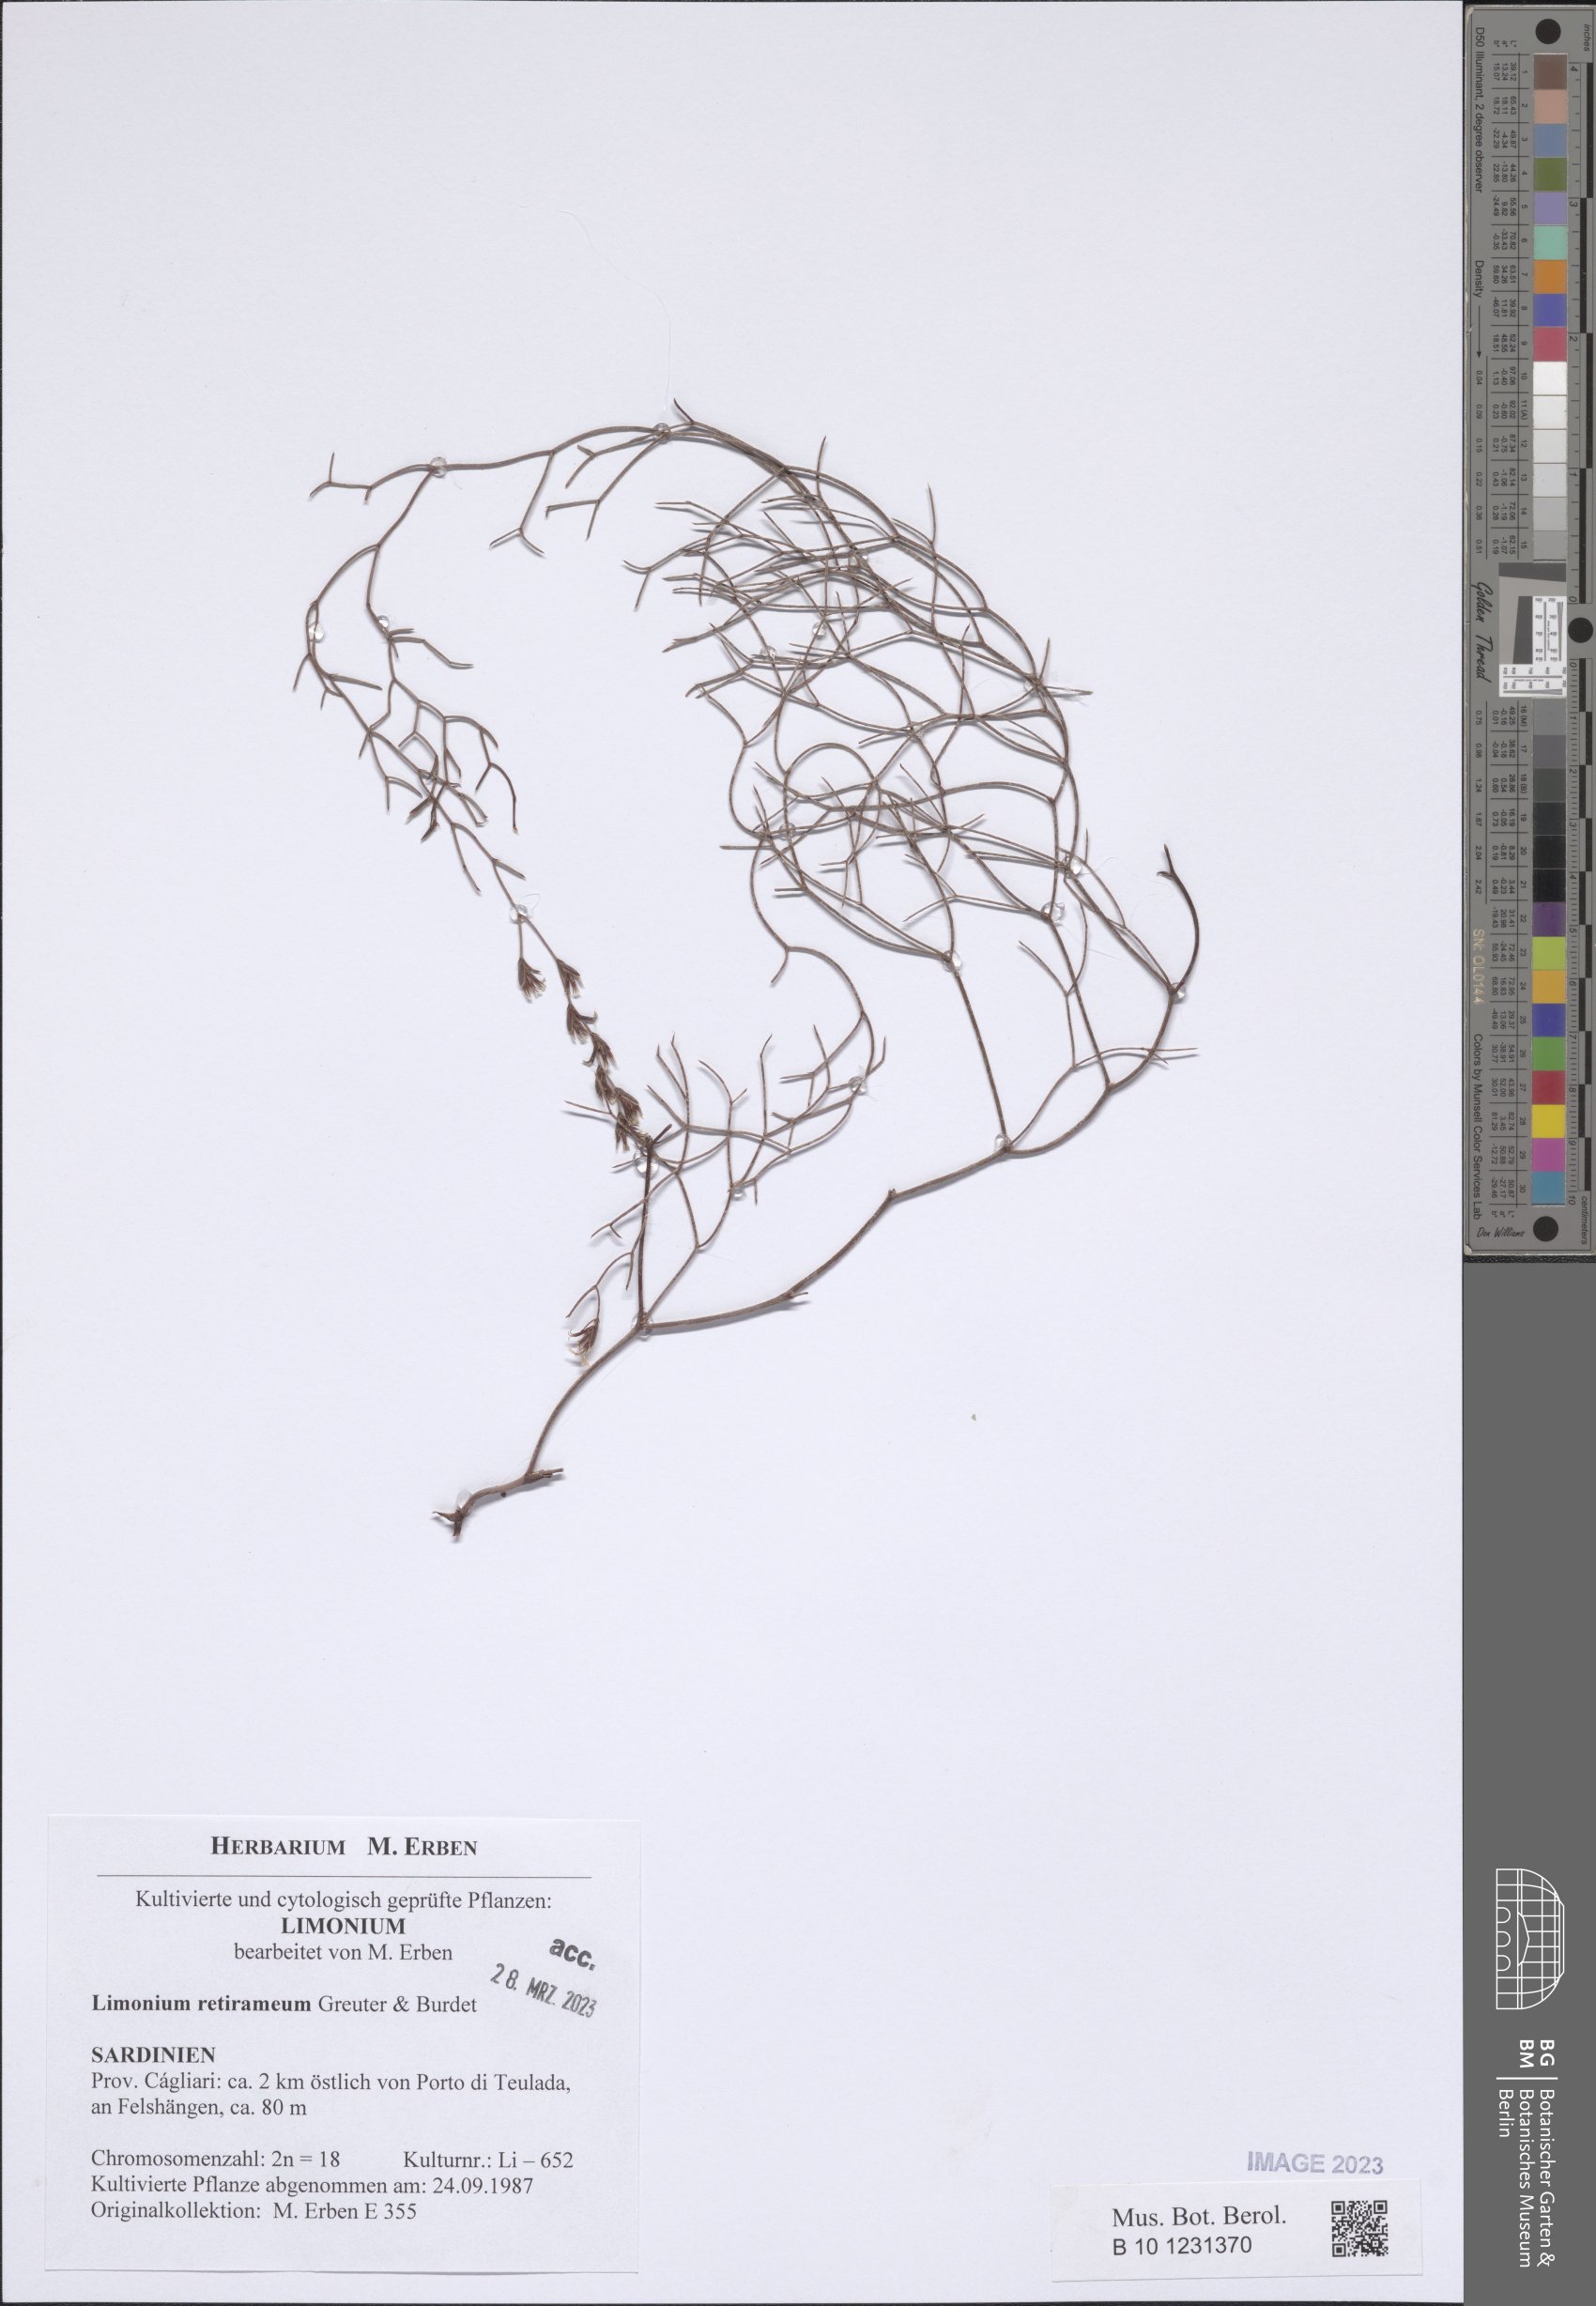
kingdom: Plantae
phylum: Tracheophyta
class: Magnoliopsida
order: Caryophyllales
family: Plumbaginaceae
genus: Limonium
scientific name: Limonium retirameum
